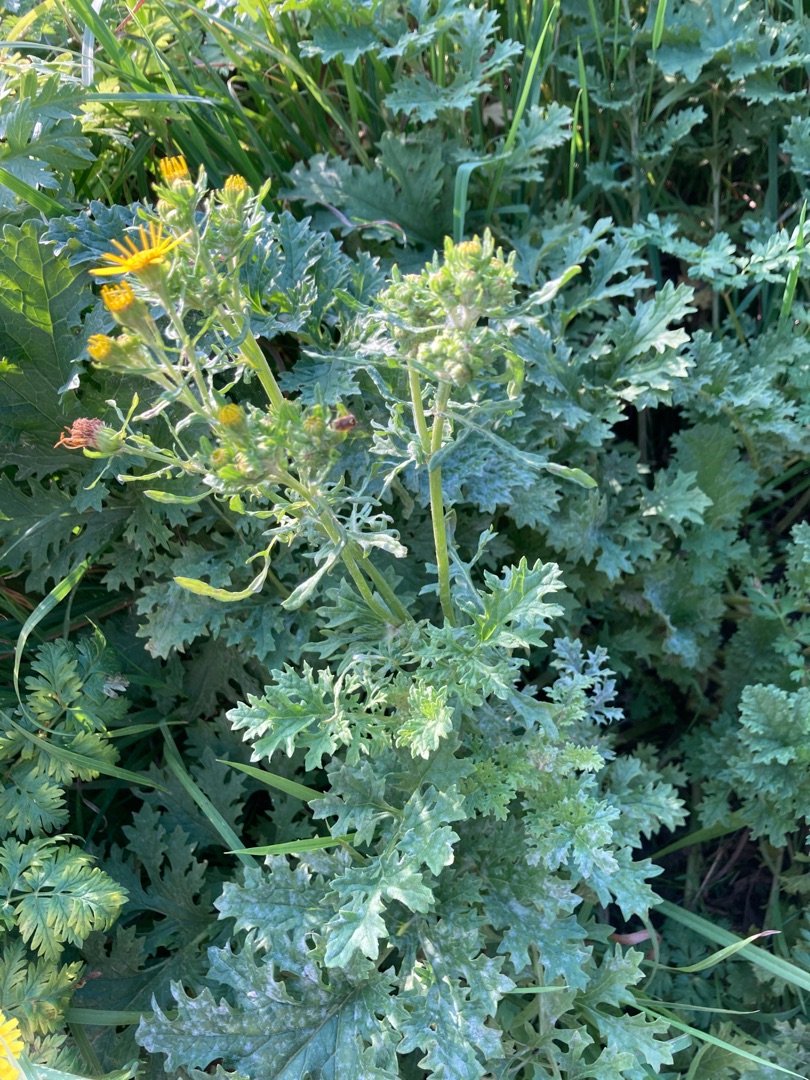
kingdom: Plantae
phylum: Tracheophyta
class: Magnoliopsida
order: Asterales
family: Asteraceae
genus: Jacobaea
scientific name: Jacobaea vulgaris
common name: Eng-brandbæger
